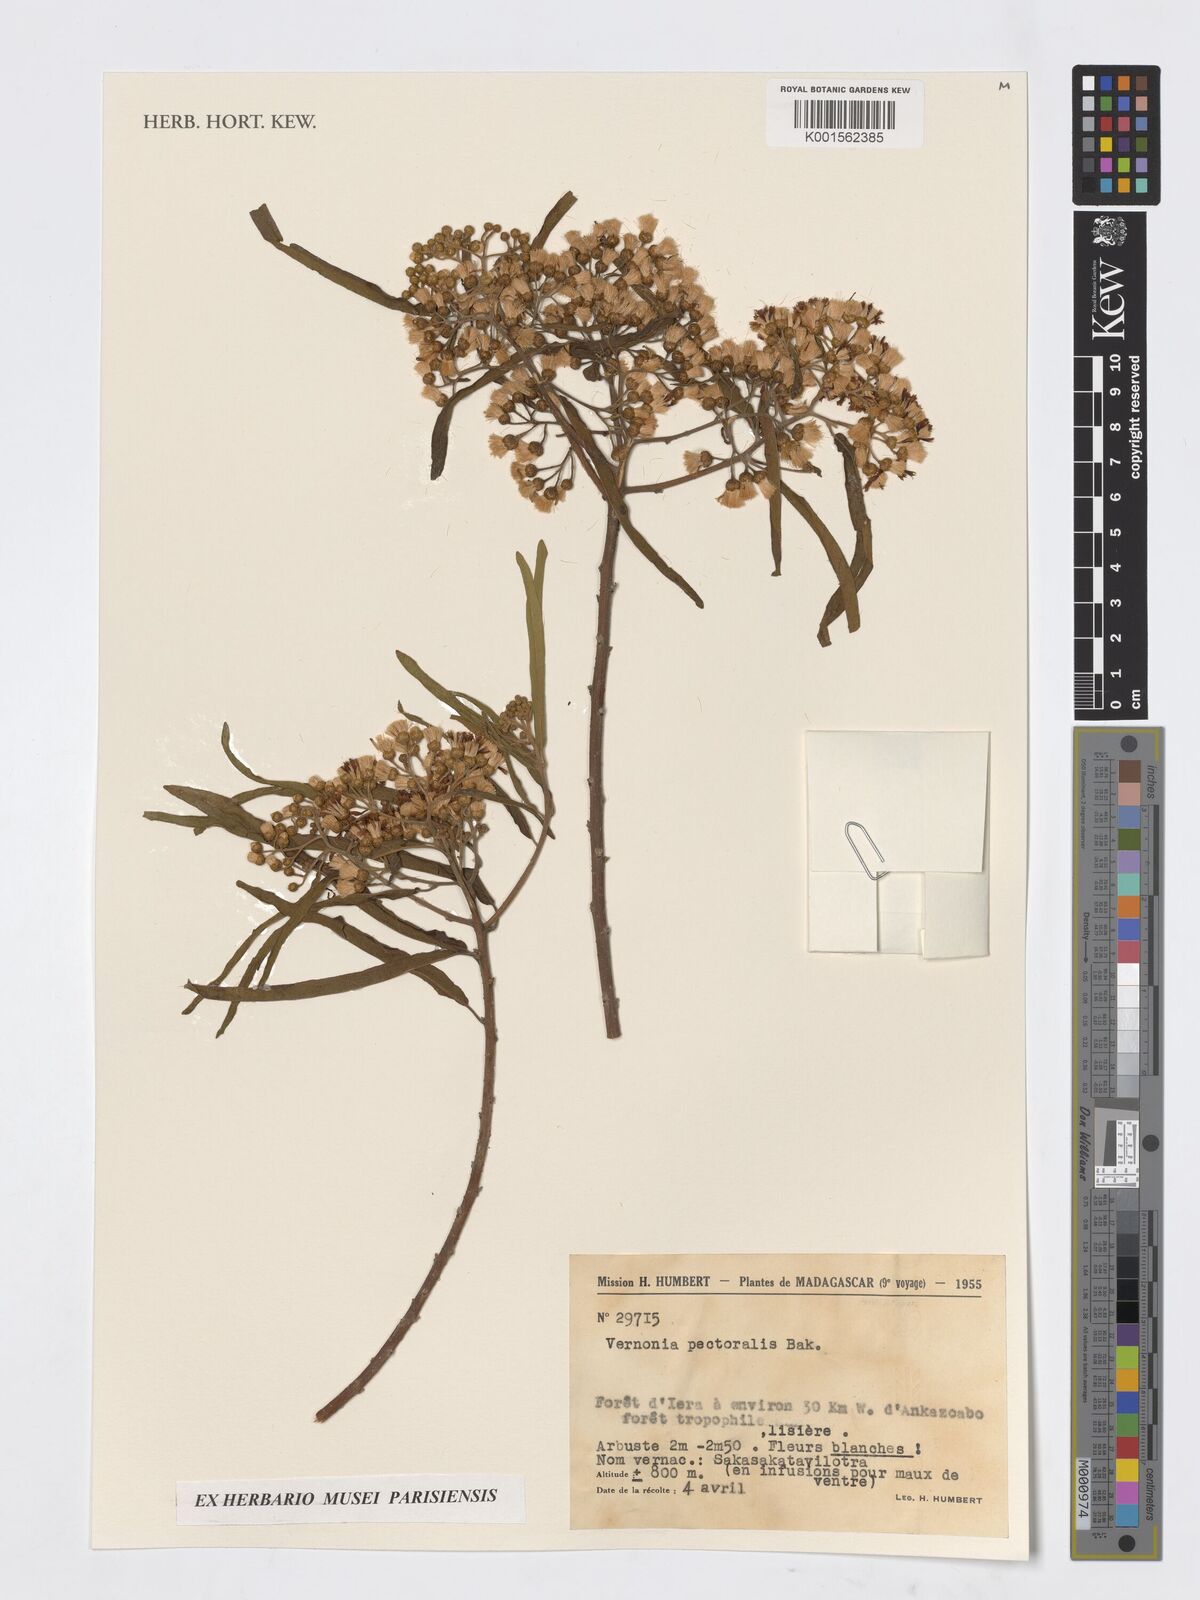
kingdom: Plantae
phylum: Tracheophyta
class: Magnoliopsida
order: Asterales
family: Asteraceae
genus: Gymnanthemum
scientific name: Gymnanthemum pectorale
